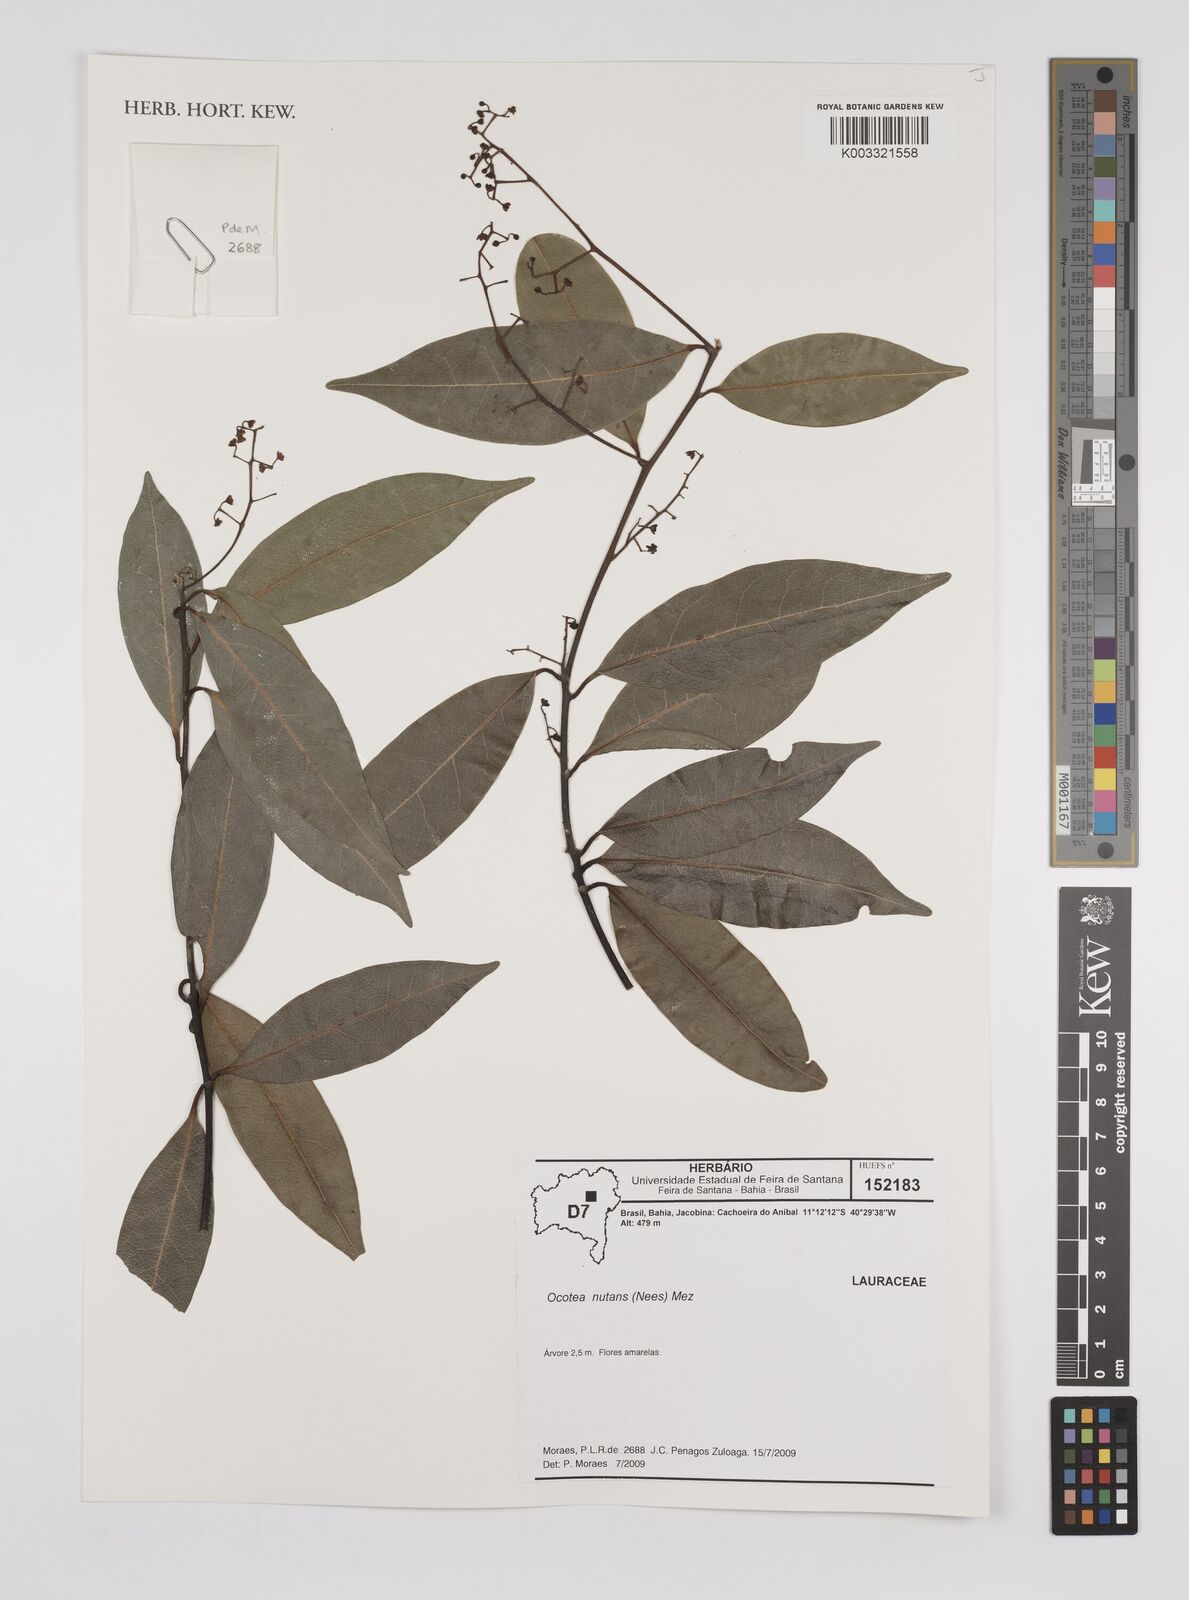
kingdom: Plantae
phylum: Tracheophyta
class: Magnoliopsida
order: Laurales
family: Lauraceae
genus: Mespilodaphne
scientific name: Mespilodaphne nutans
